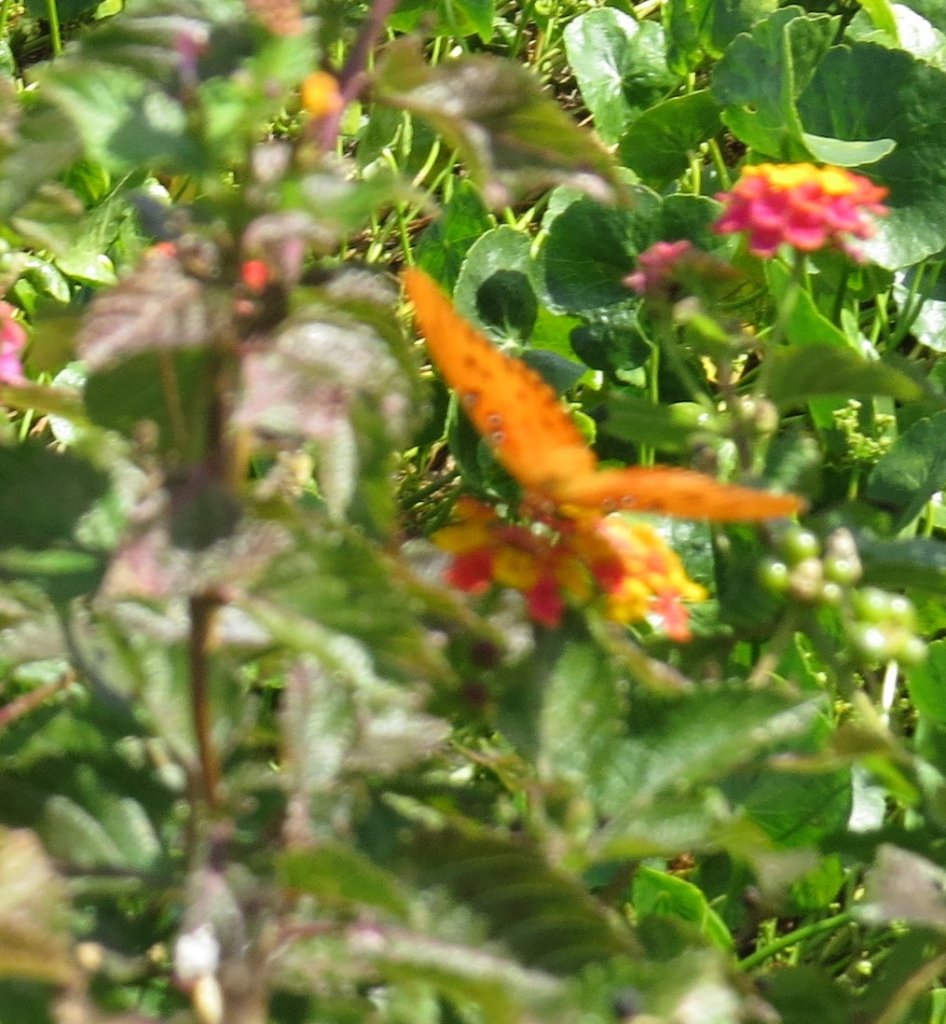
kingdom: Animalia
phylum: Arthropoda
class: Insecta
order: Lepidoptera
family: Nymphalidae
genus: Dione
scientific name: Dione vanillae
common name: Gulf Fritillary
